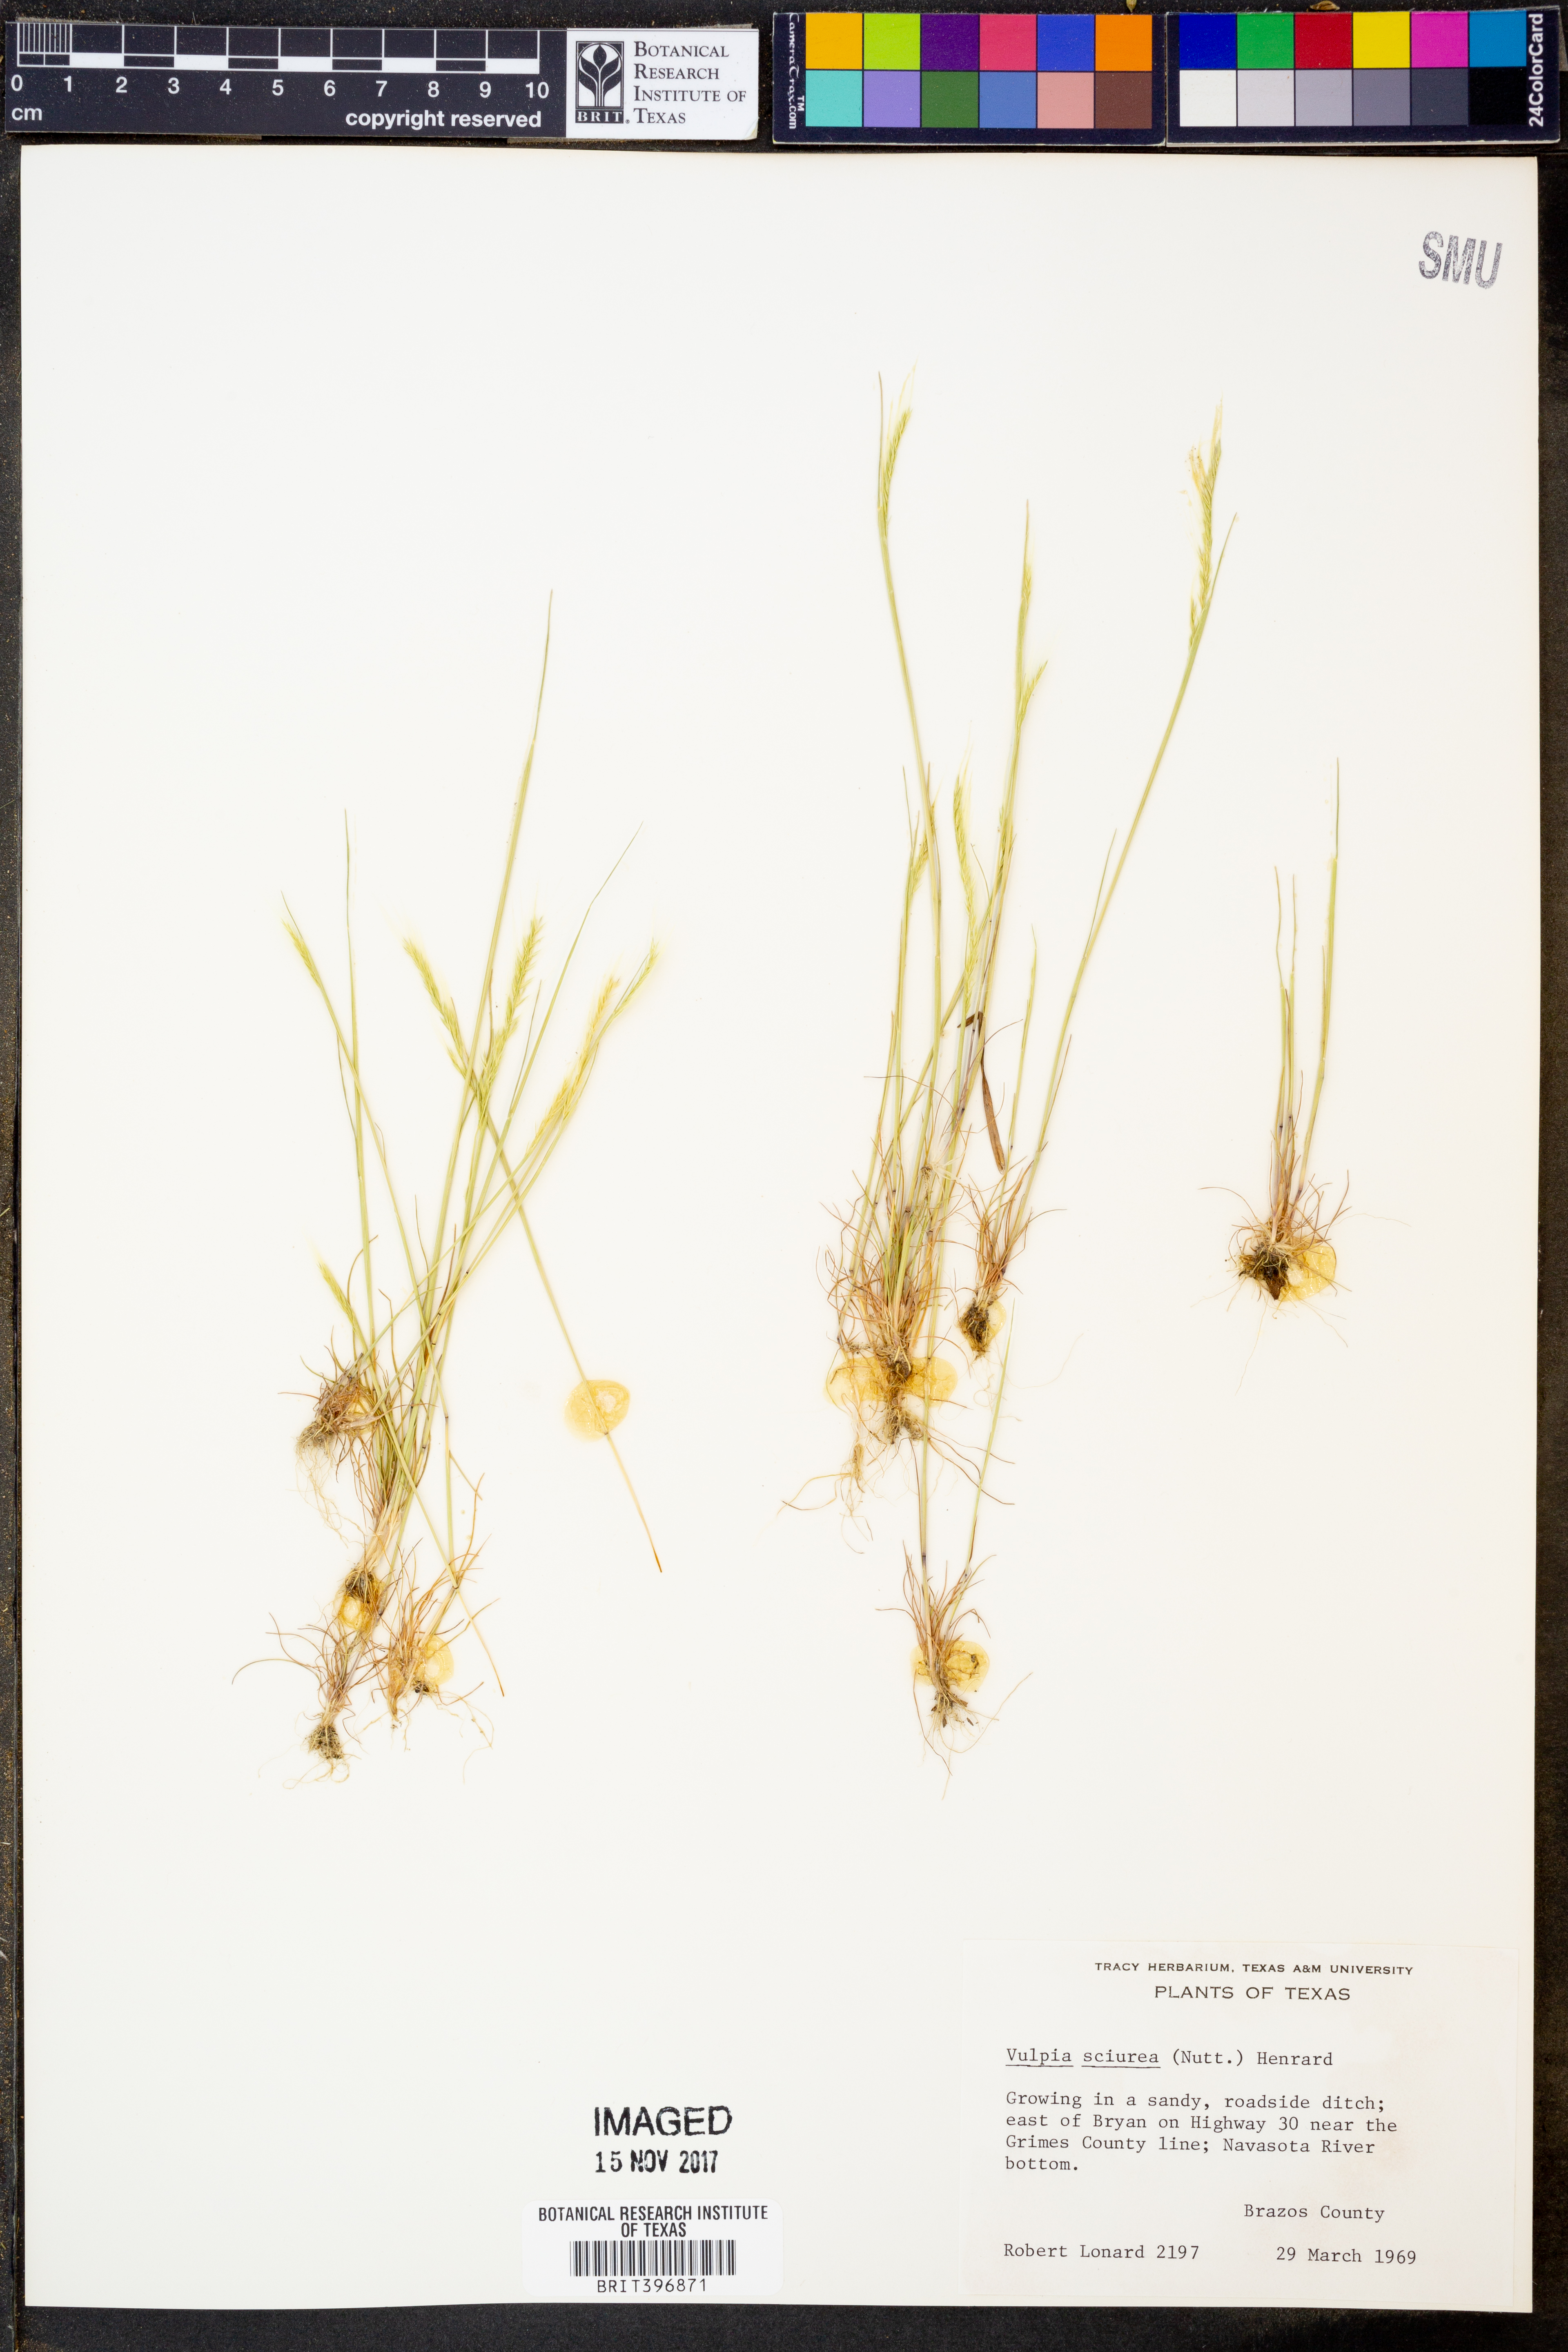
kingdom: Plantae
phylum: Tracheophyta
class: Liliopsida
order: Poales
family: Poaceae
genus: Festuca
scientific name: Festuca sciurea
